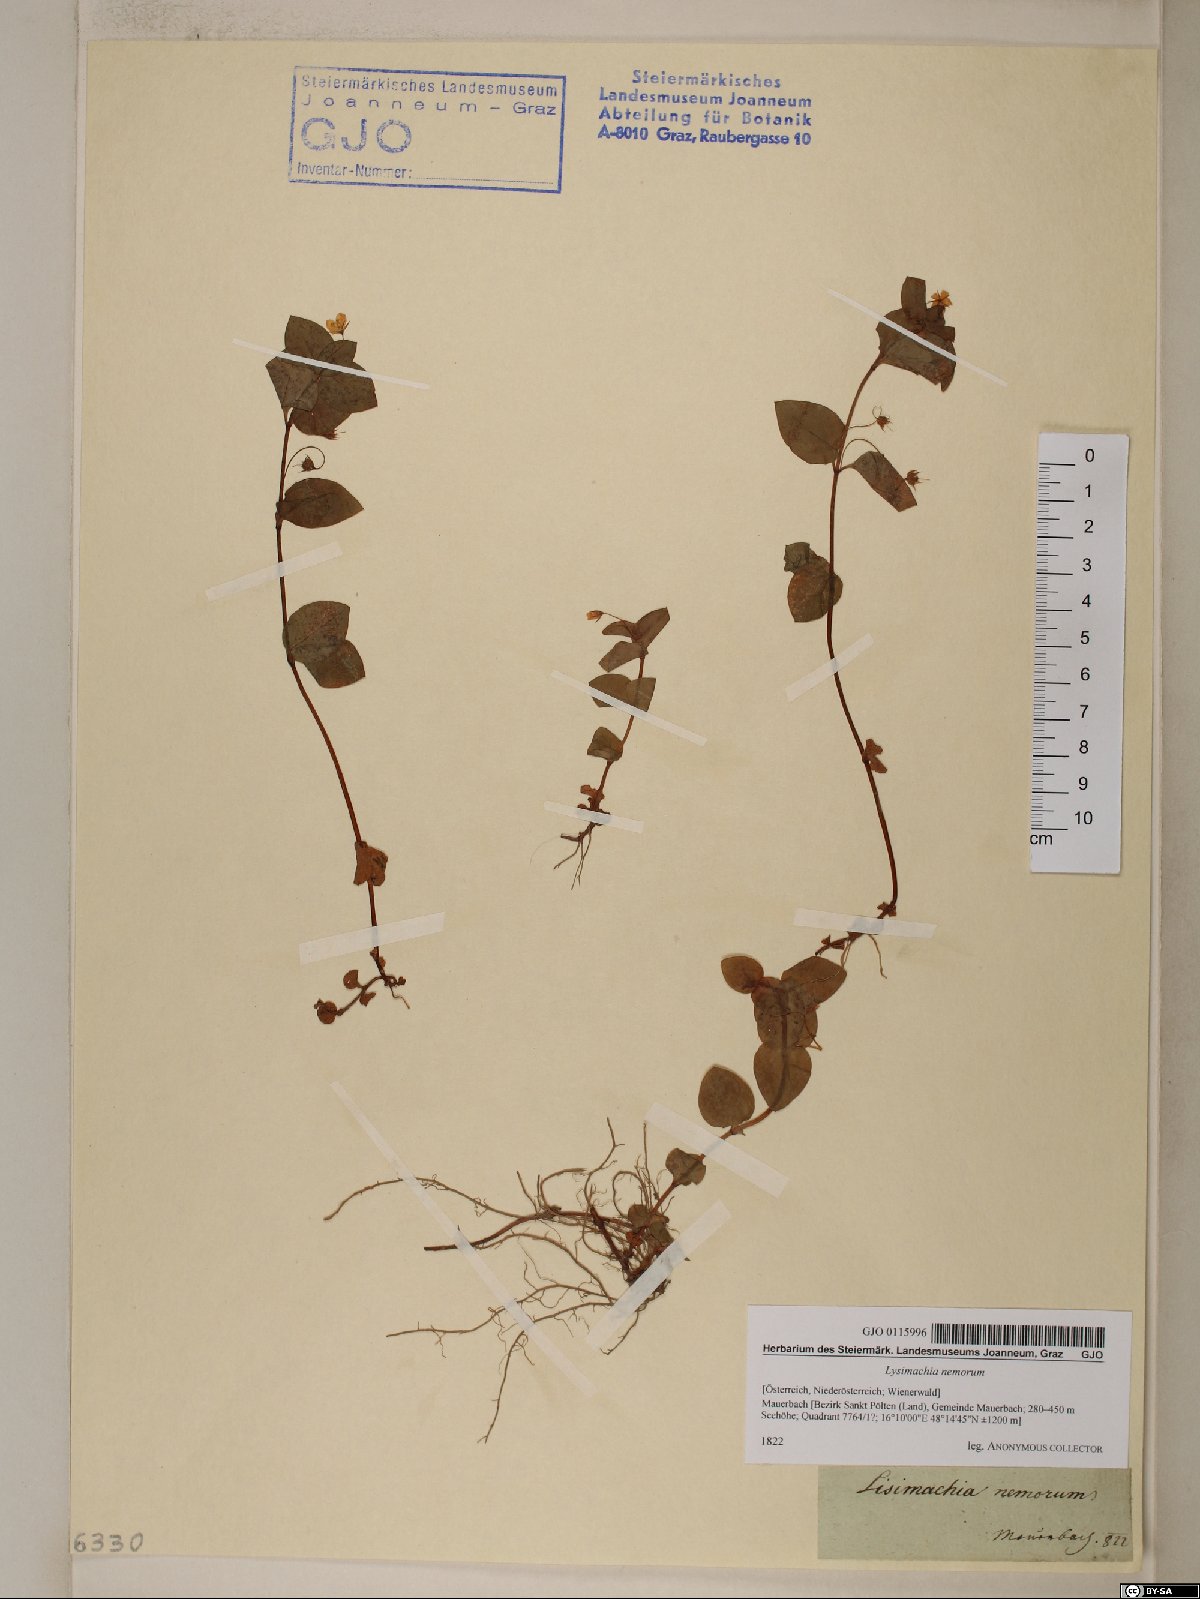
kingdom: Plantae
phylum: Tracheophyta
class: Magnoliopsida
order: Ericales
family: Primulaceae
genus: Lysimachia
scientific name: Lysimachia nemorum
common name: Yellow pimpernel
